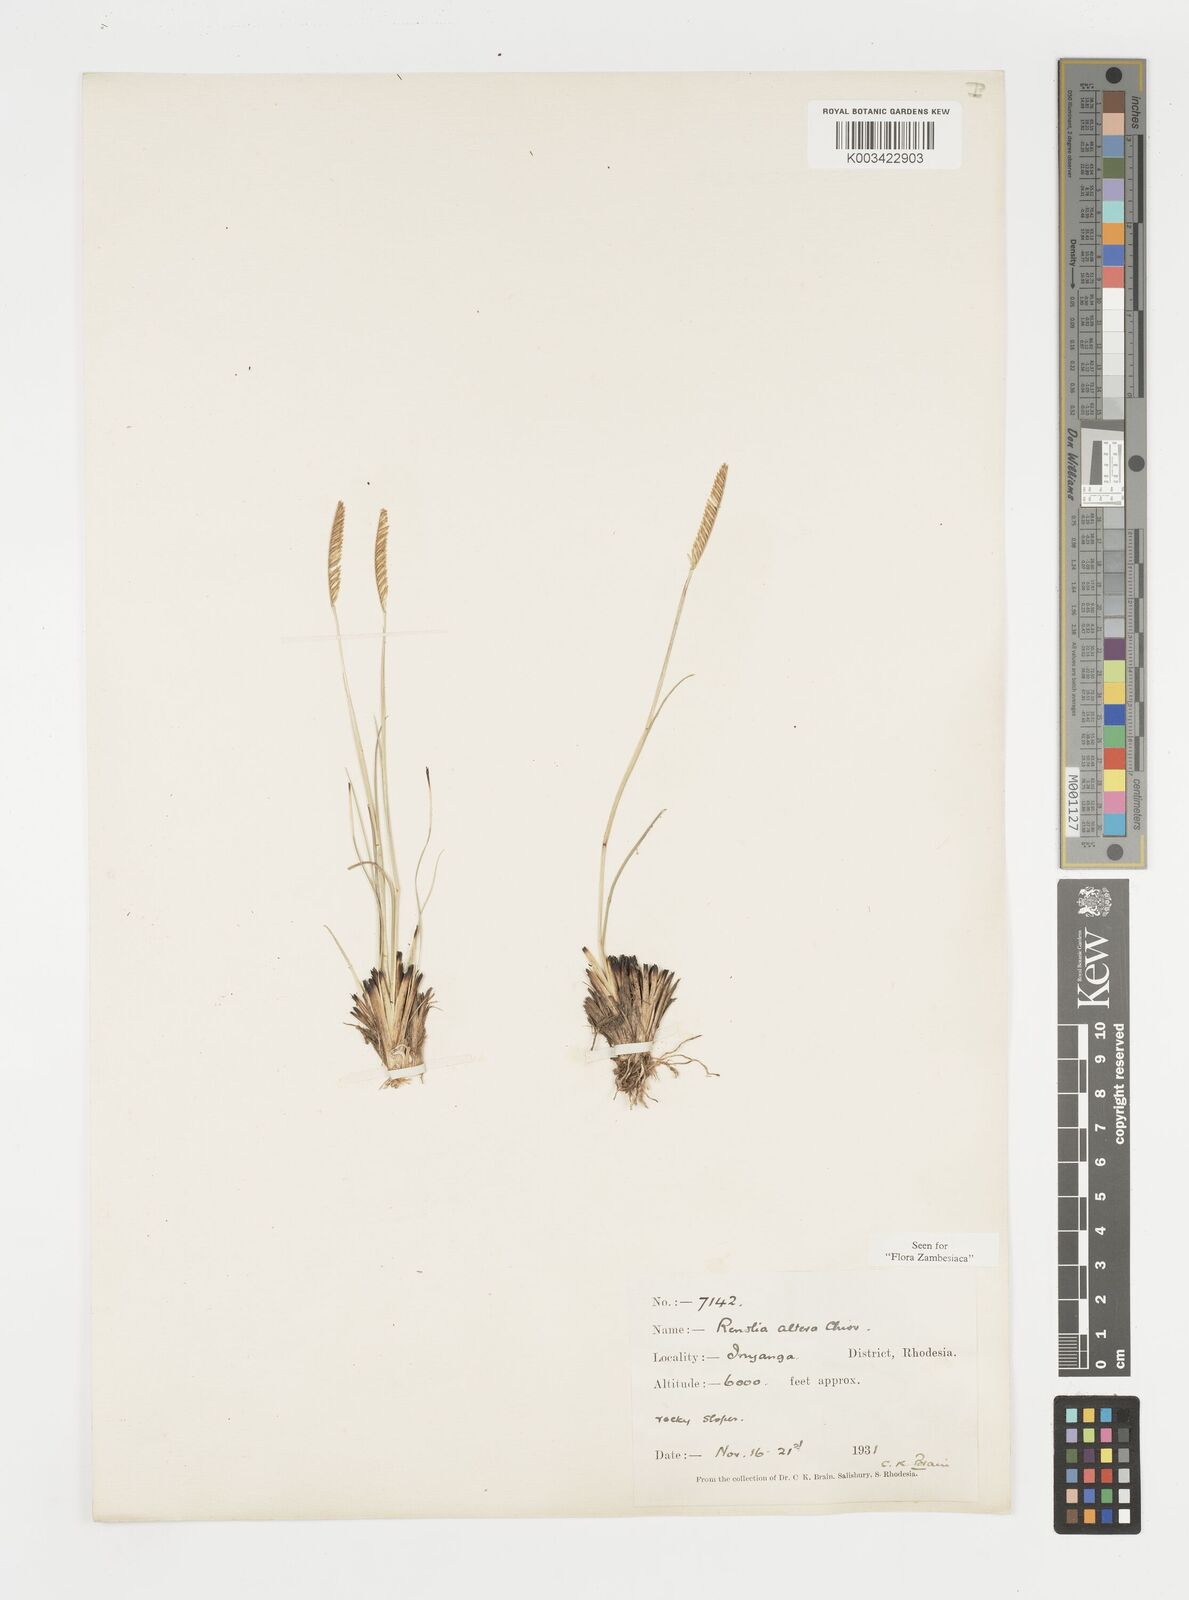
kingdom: Plantae
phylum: Tracheophyta
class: Liliopsida
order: Poales
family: Poaceae
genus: Microchloa
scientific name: Microchloa altera
